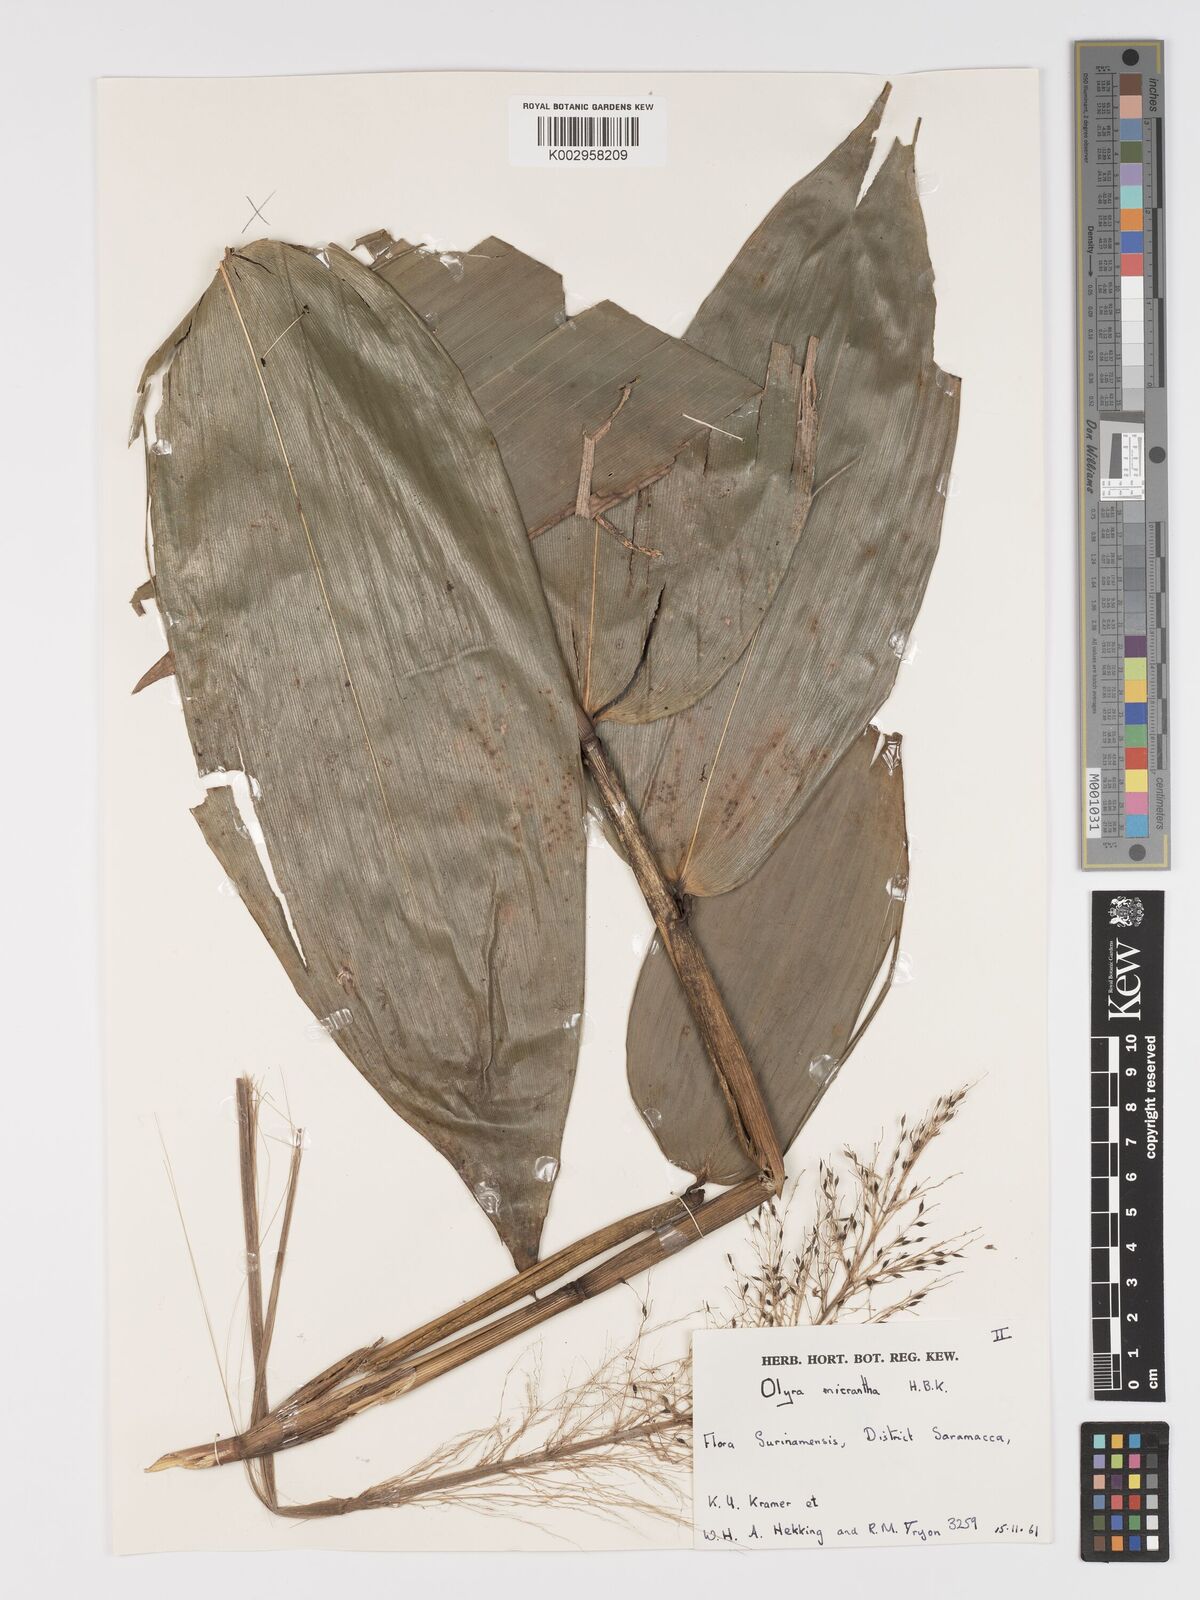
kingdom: Plantae
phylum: Tracheophyta
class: Liliopsida
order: Poales
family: Poaceae
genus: Taquara
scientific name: Taquara micrantha
